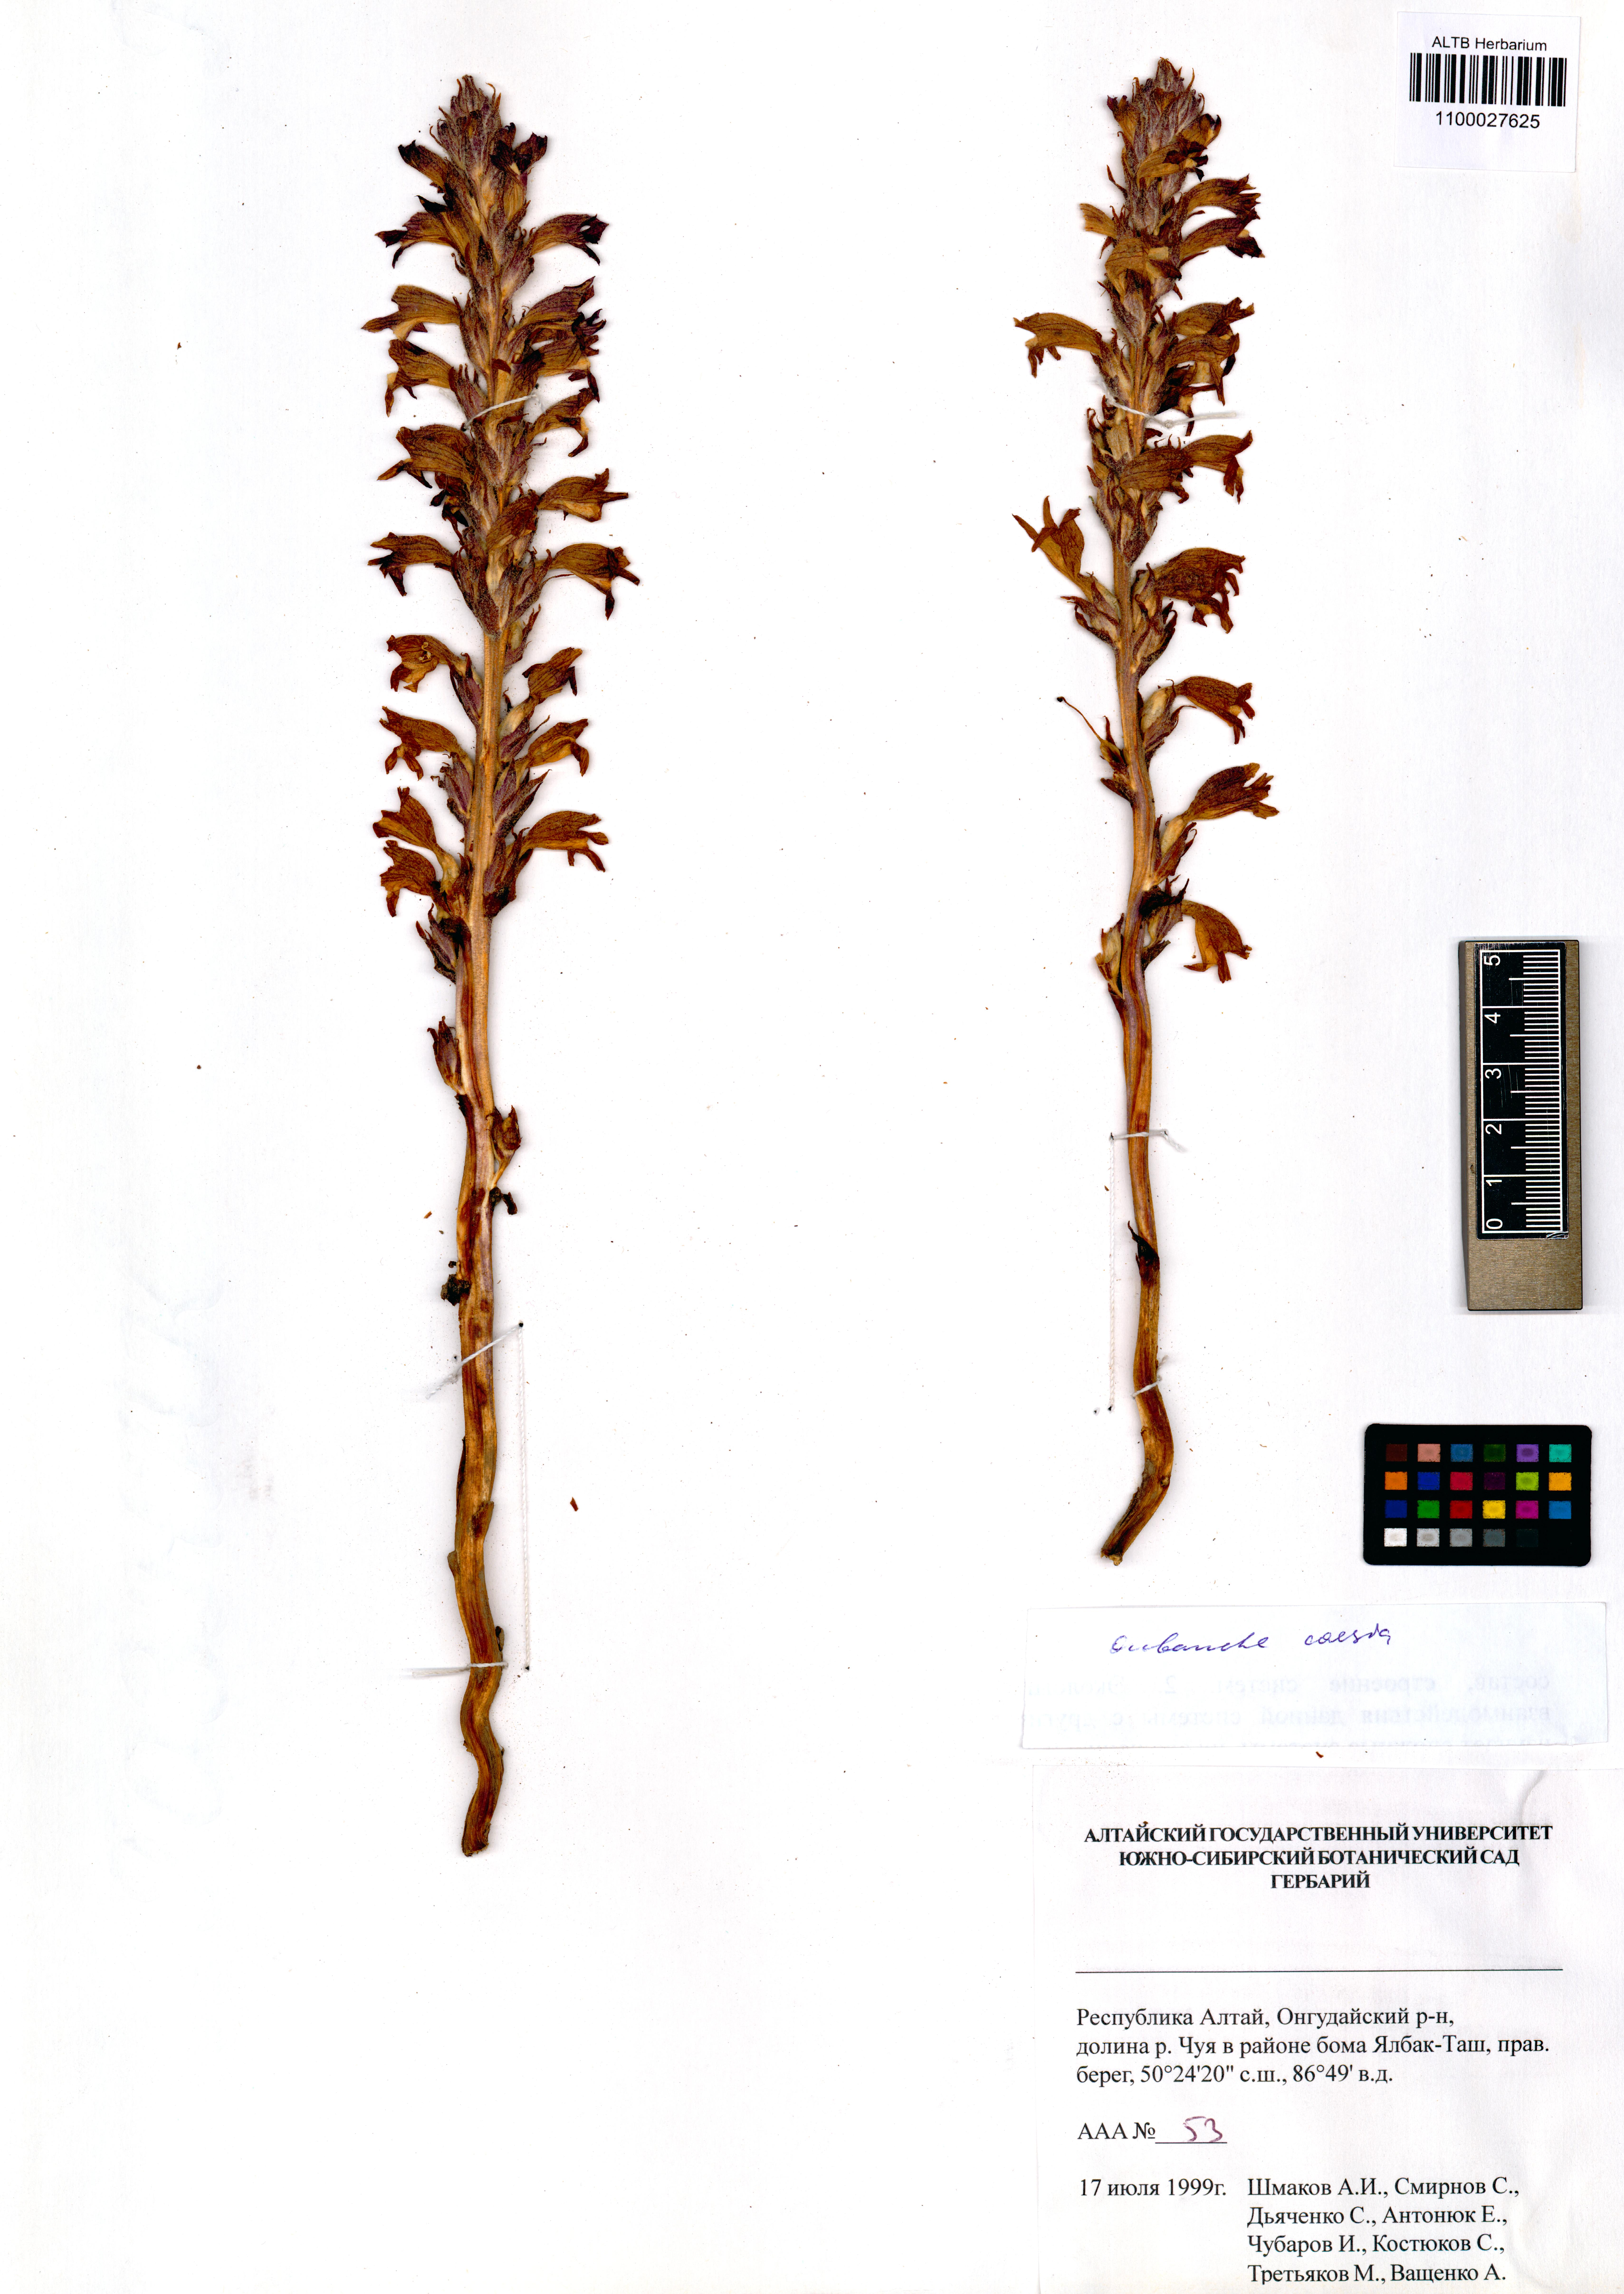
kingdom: Plantae
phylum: Tracheophyta
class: Magnoliopsida
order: Lamiales
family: Orobanchaceae
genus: Phelipanche
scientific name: Phelipanche caesia
